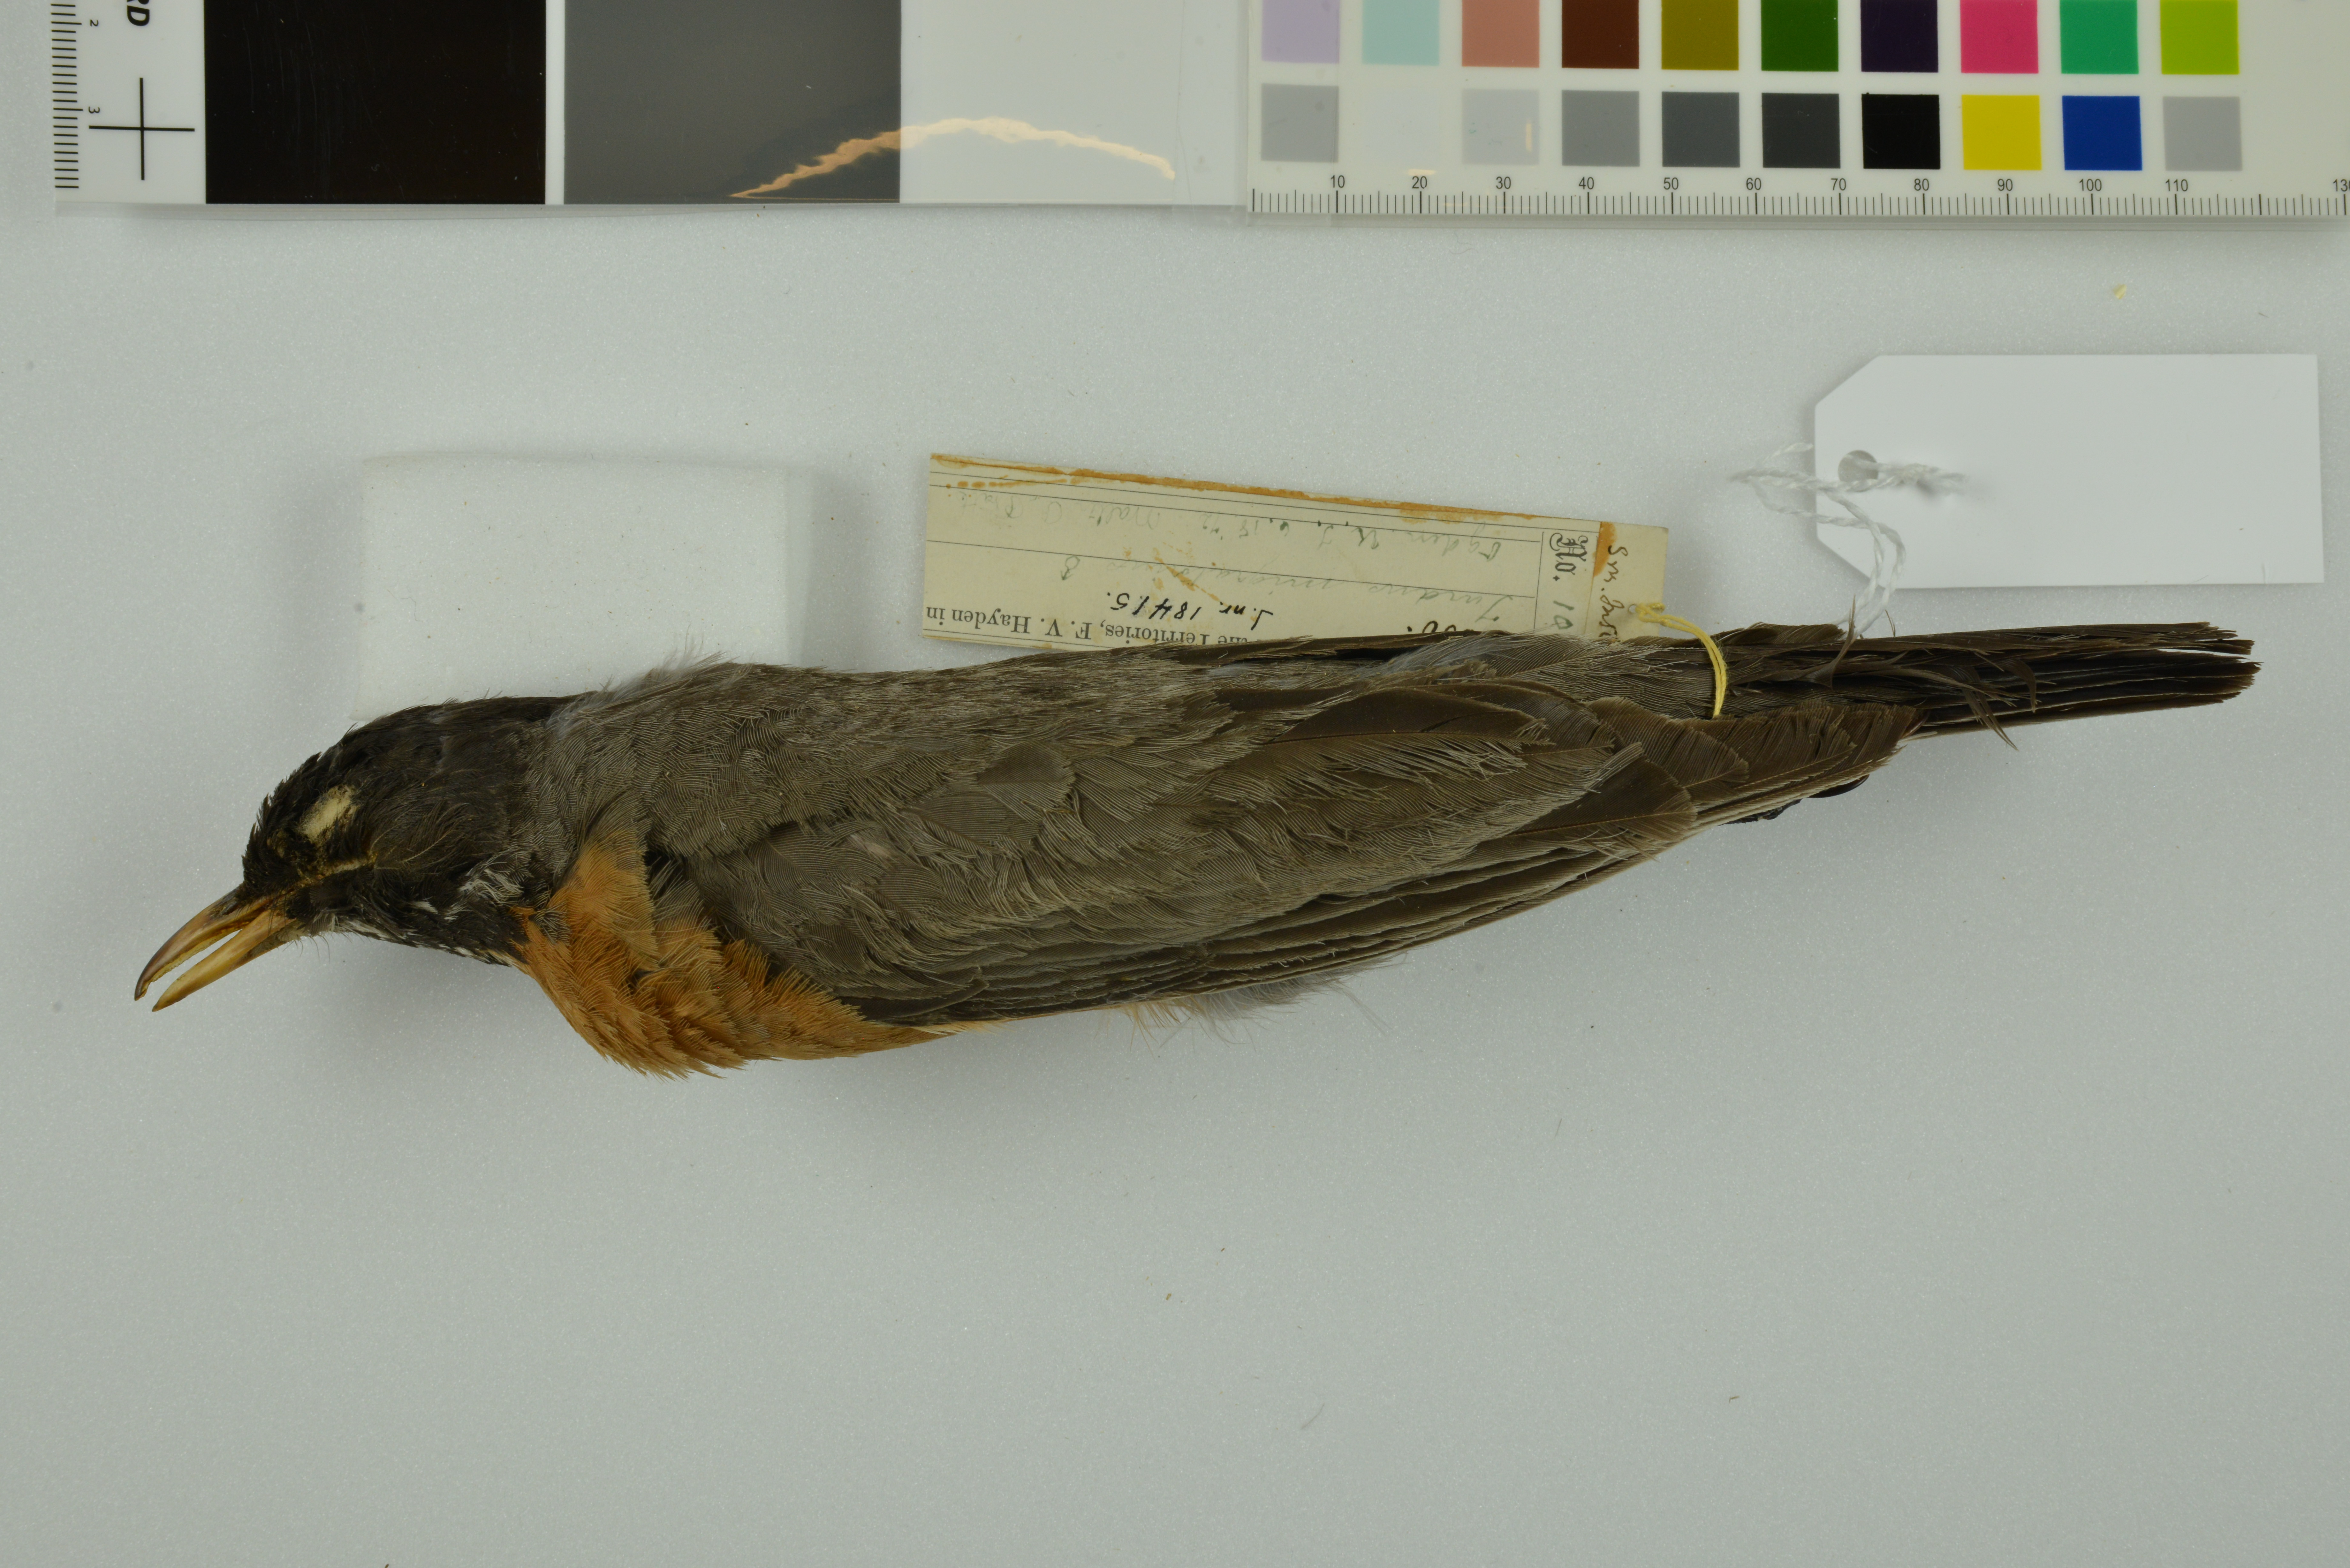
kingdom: Animalia
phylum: Chordata
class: Aves
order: Passeriformes
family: Turdidae
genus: Turdus
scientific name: Turdus migratorius
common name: American robin
